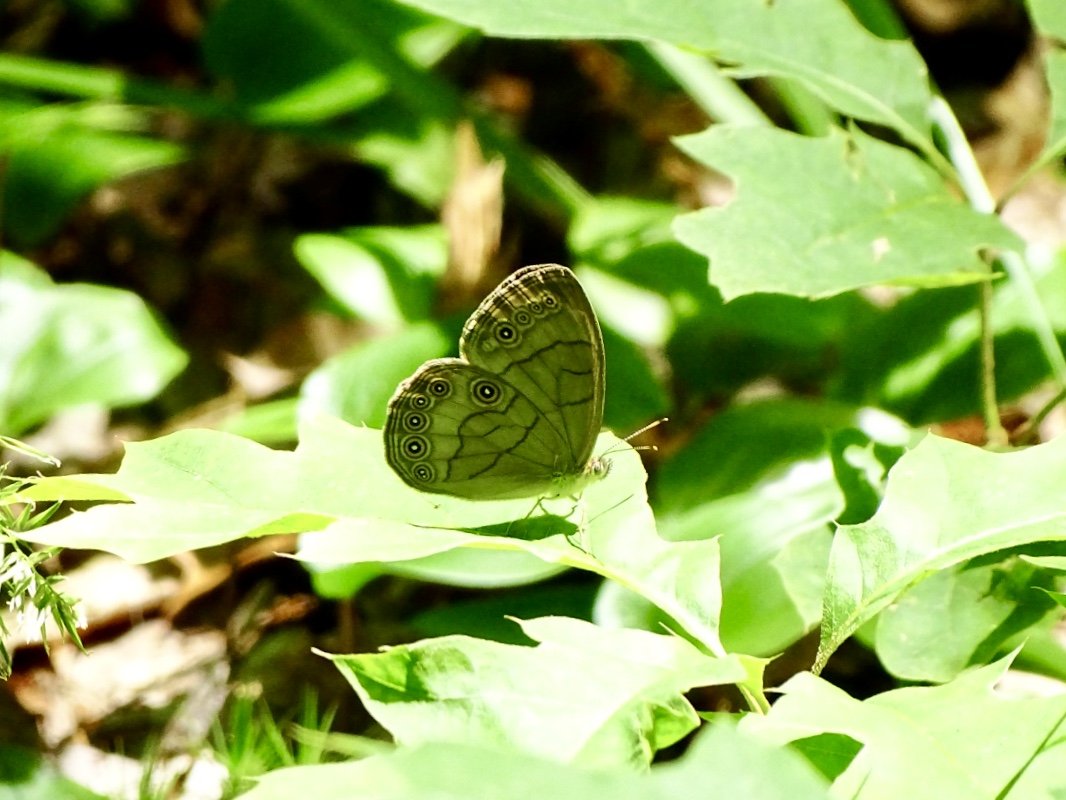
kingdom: Animalia
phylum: Arthropoda
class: Insecta
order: Lepidoptera
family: Nymphalidae
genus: Lethe
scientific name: Lethe eurydice
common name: Appalachian Eyed Brown
